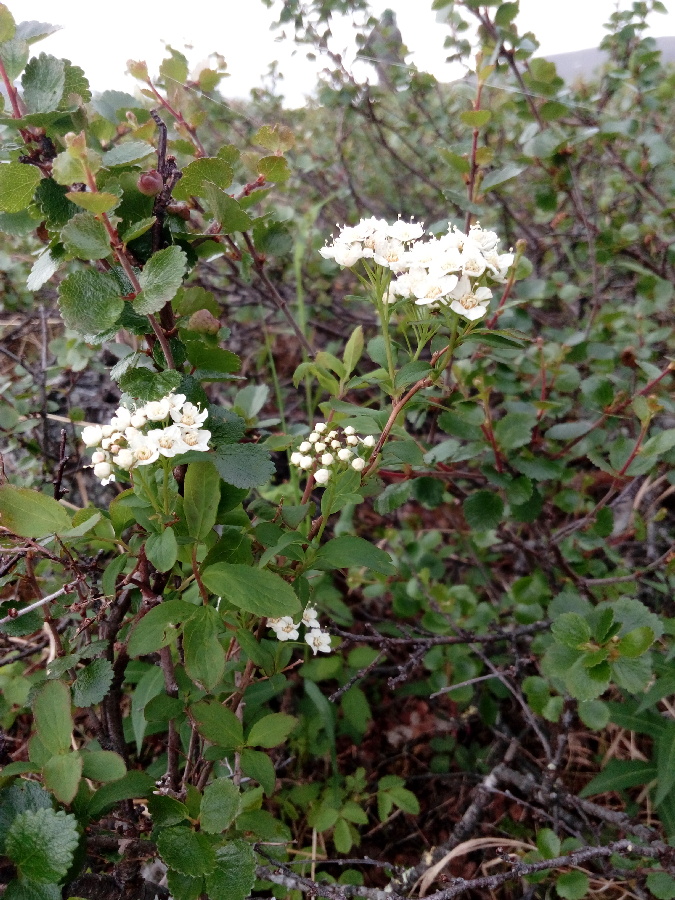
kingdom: Plantae
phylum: Tracheophyta
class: Magnoliopsida
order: Rosales
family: Rosaceae
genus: Spiraea
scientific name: Spiraea media
